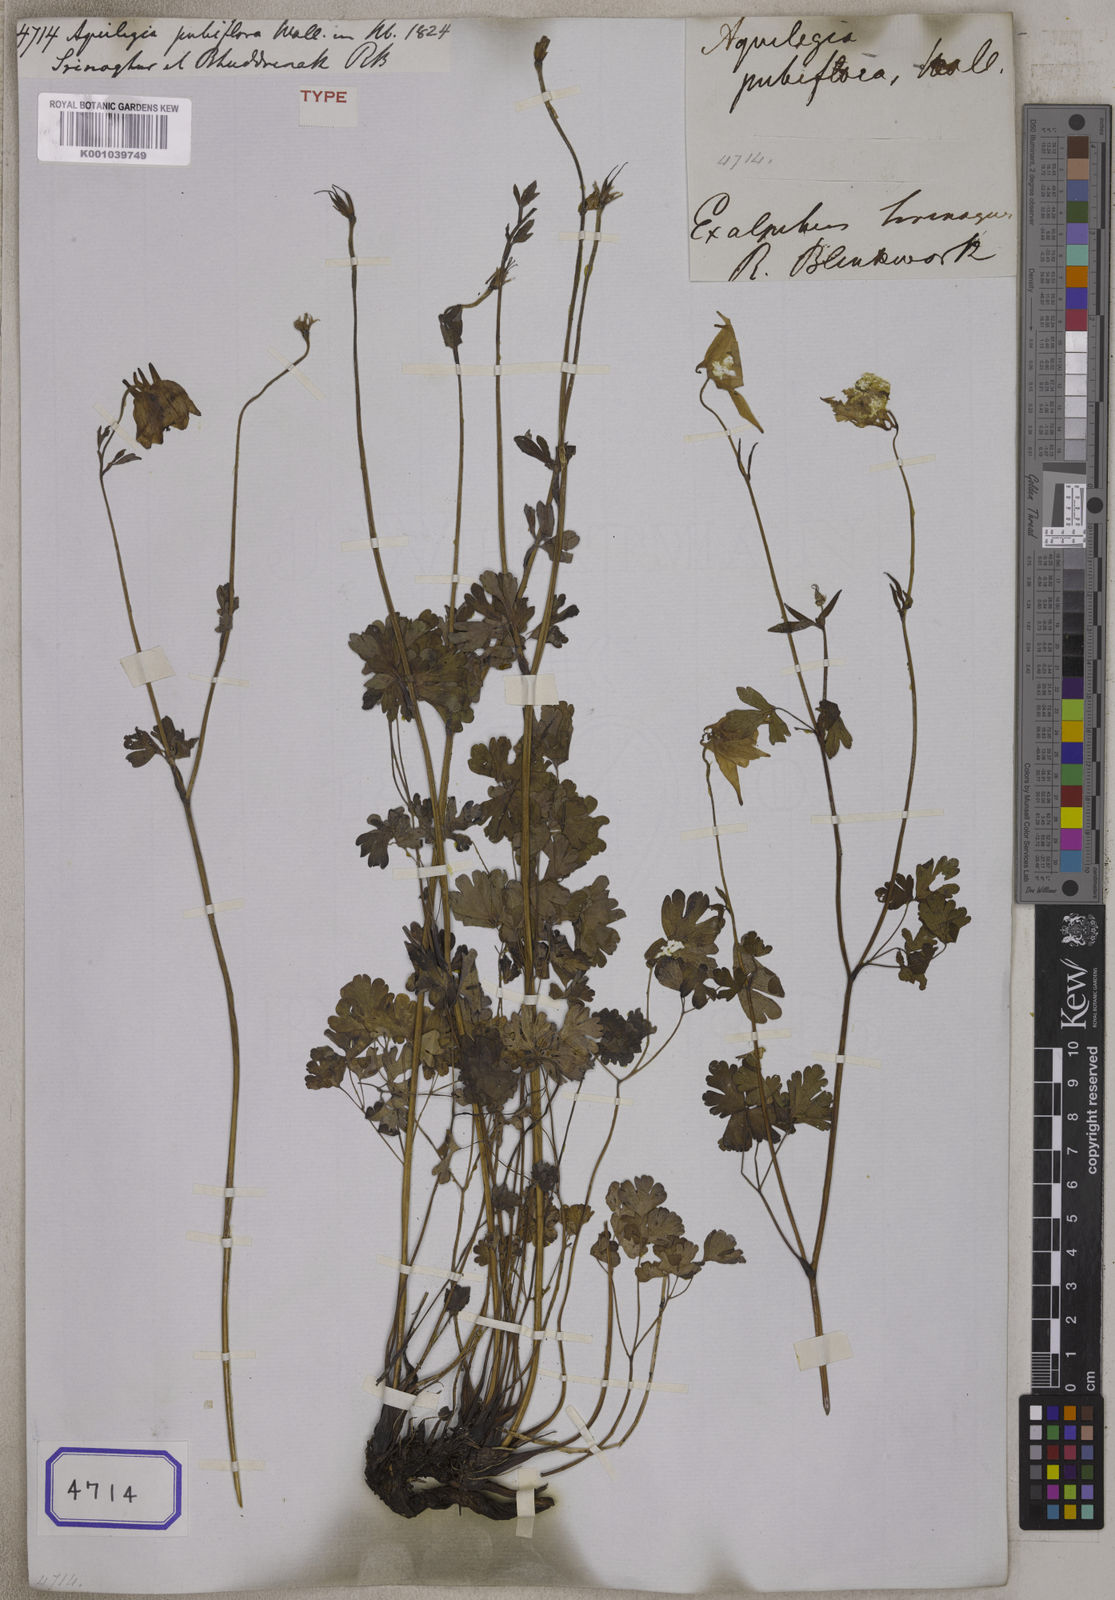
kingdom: Plantae
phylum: Tracheophyta
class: Magnoliopsida
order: Ranunculales
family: Ranunculaceae
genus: Aquilegia
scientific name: Aquilegia
